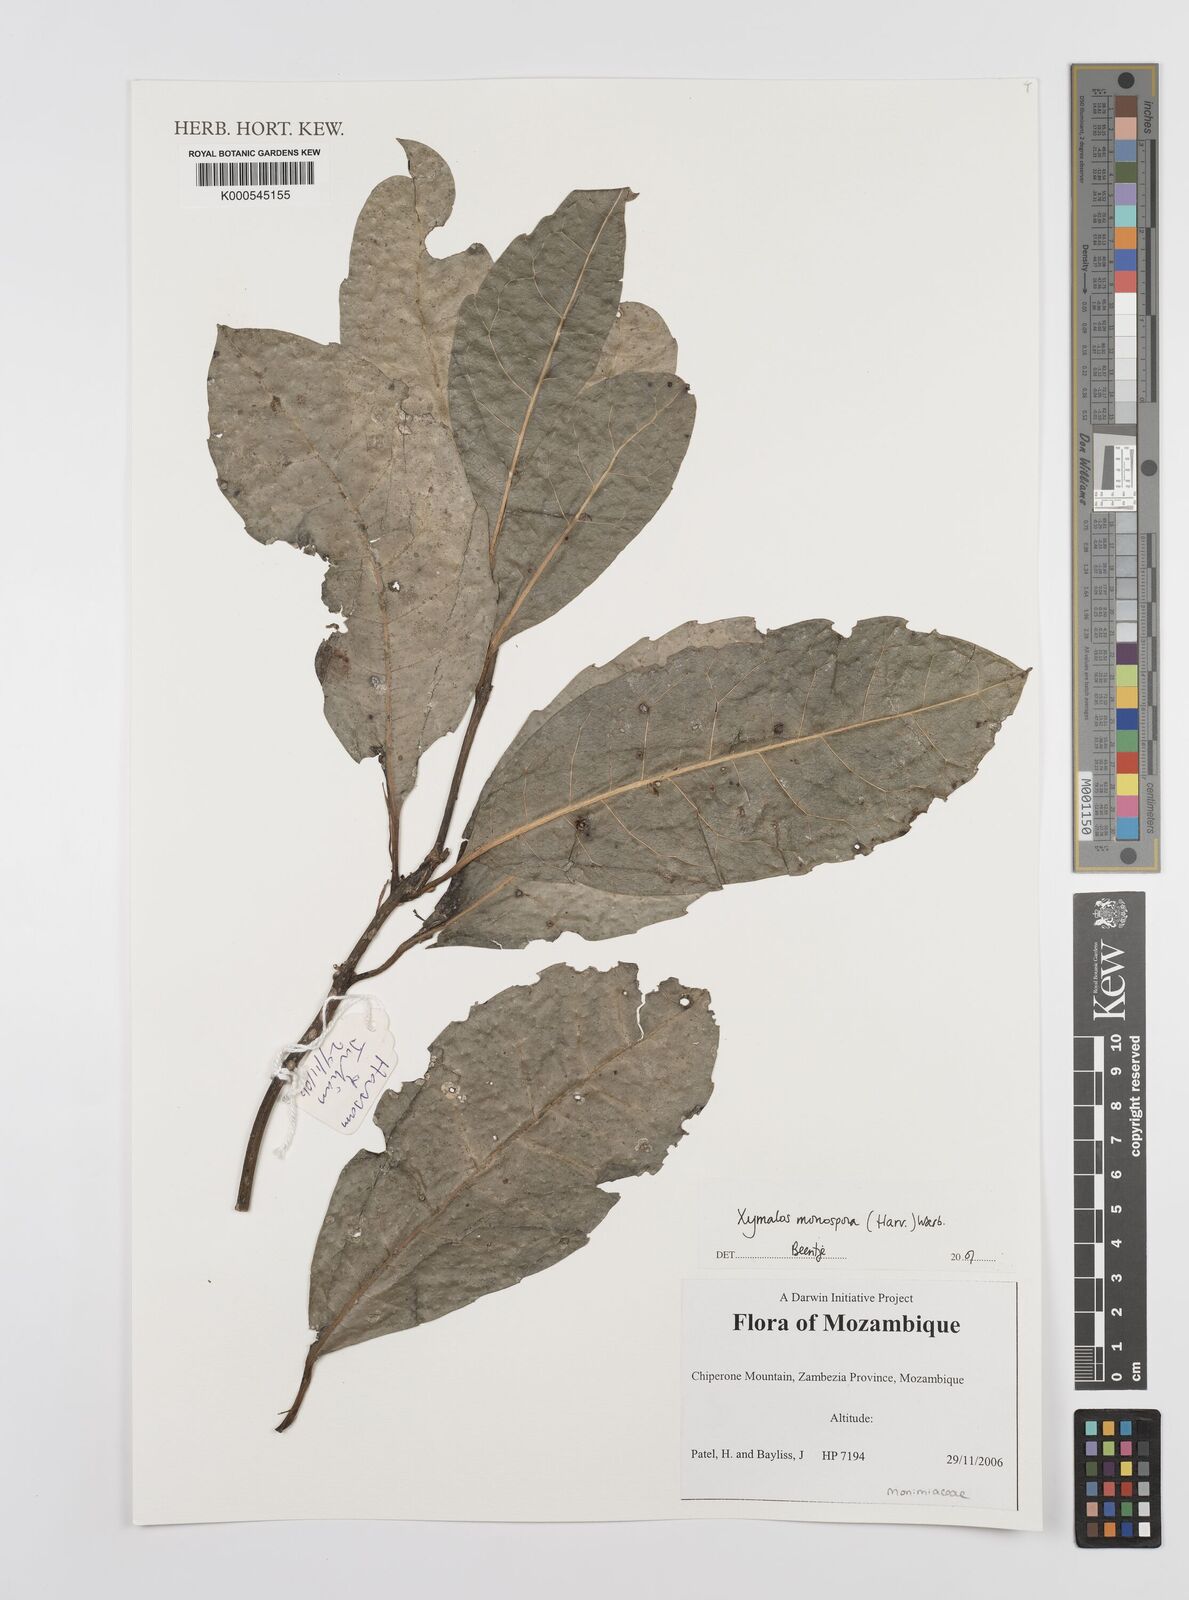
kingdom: Plantae
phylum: Tracheophyta
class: Magnoliopsida
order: Laurales
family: Monimiaceae
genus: Xymalos
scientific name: Xymalos
